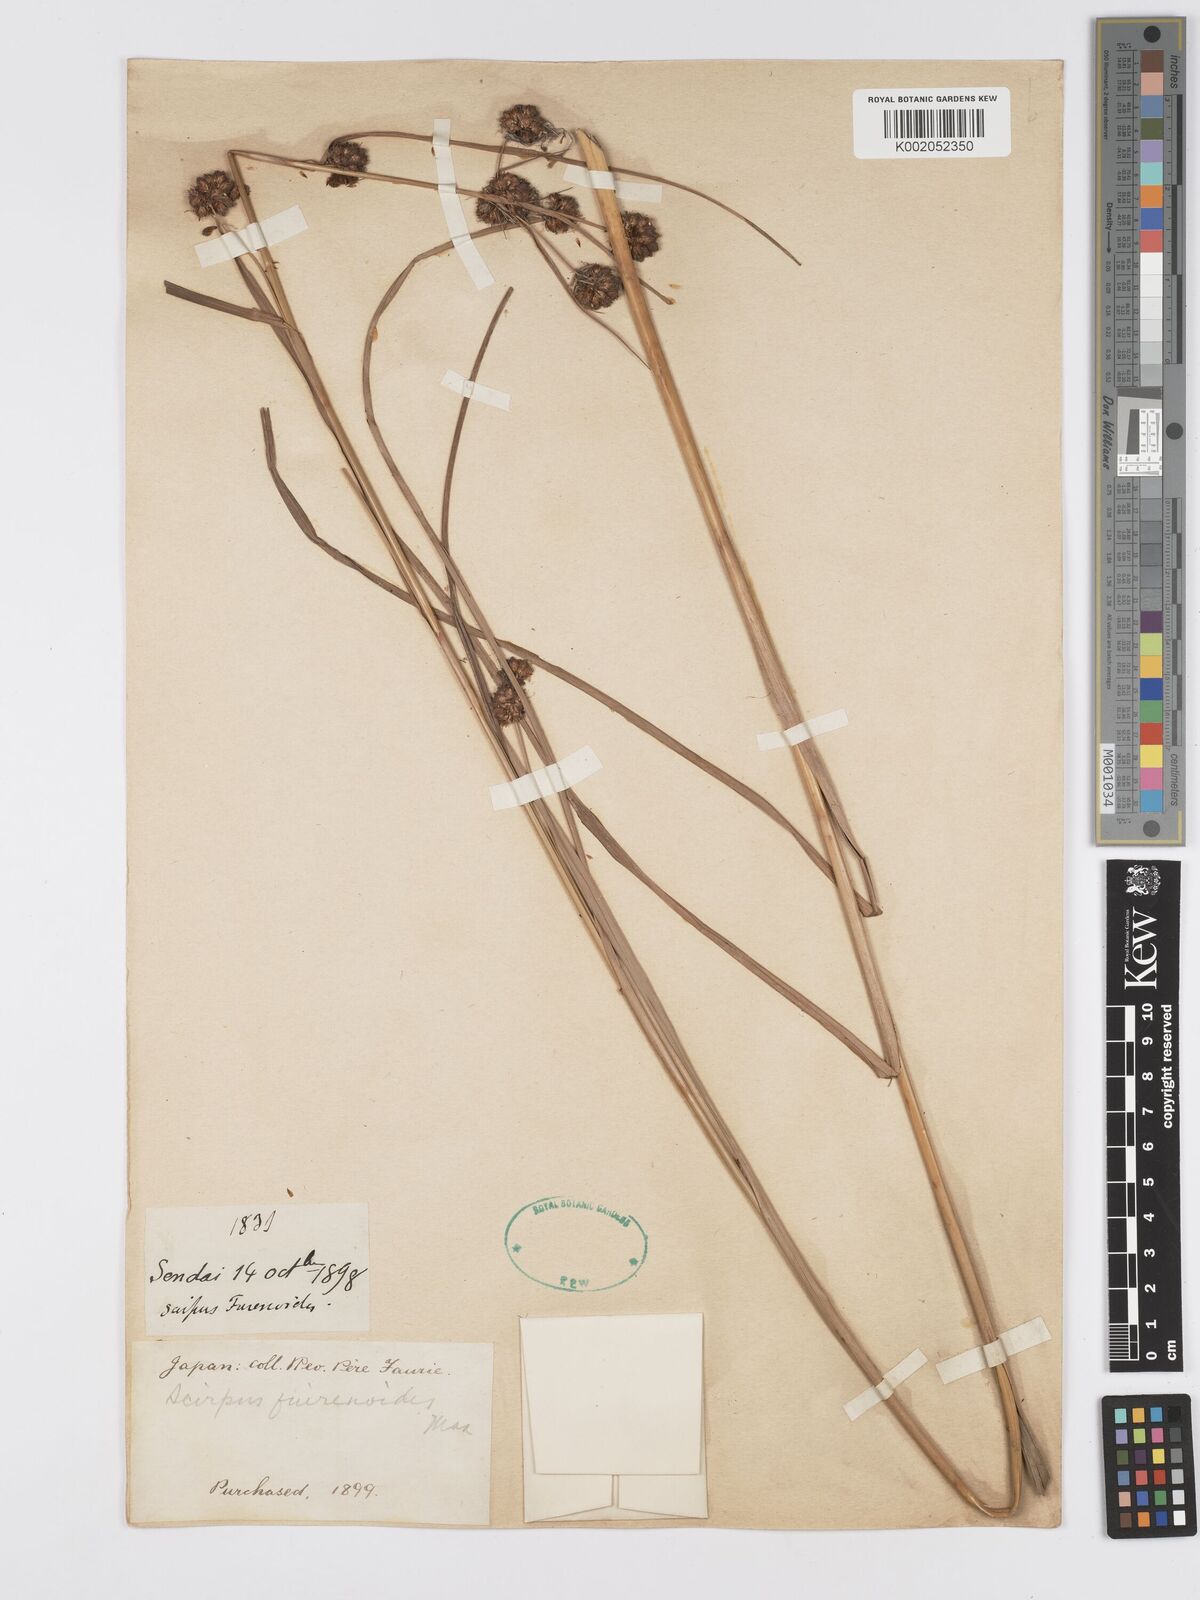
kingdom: Plantae
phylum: Tracheophyta
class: Liliopsida
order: Poales
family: Cyperaceae
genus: Scirpus
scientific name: Scirpus fuirenoides
